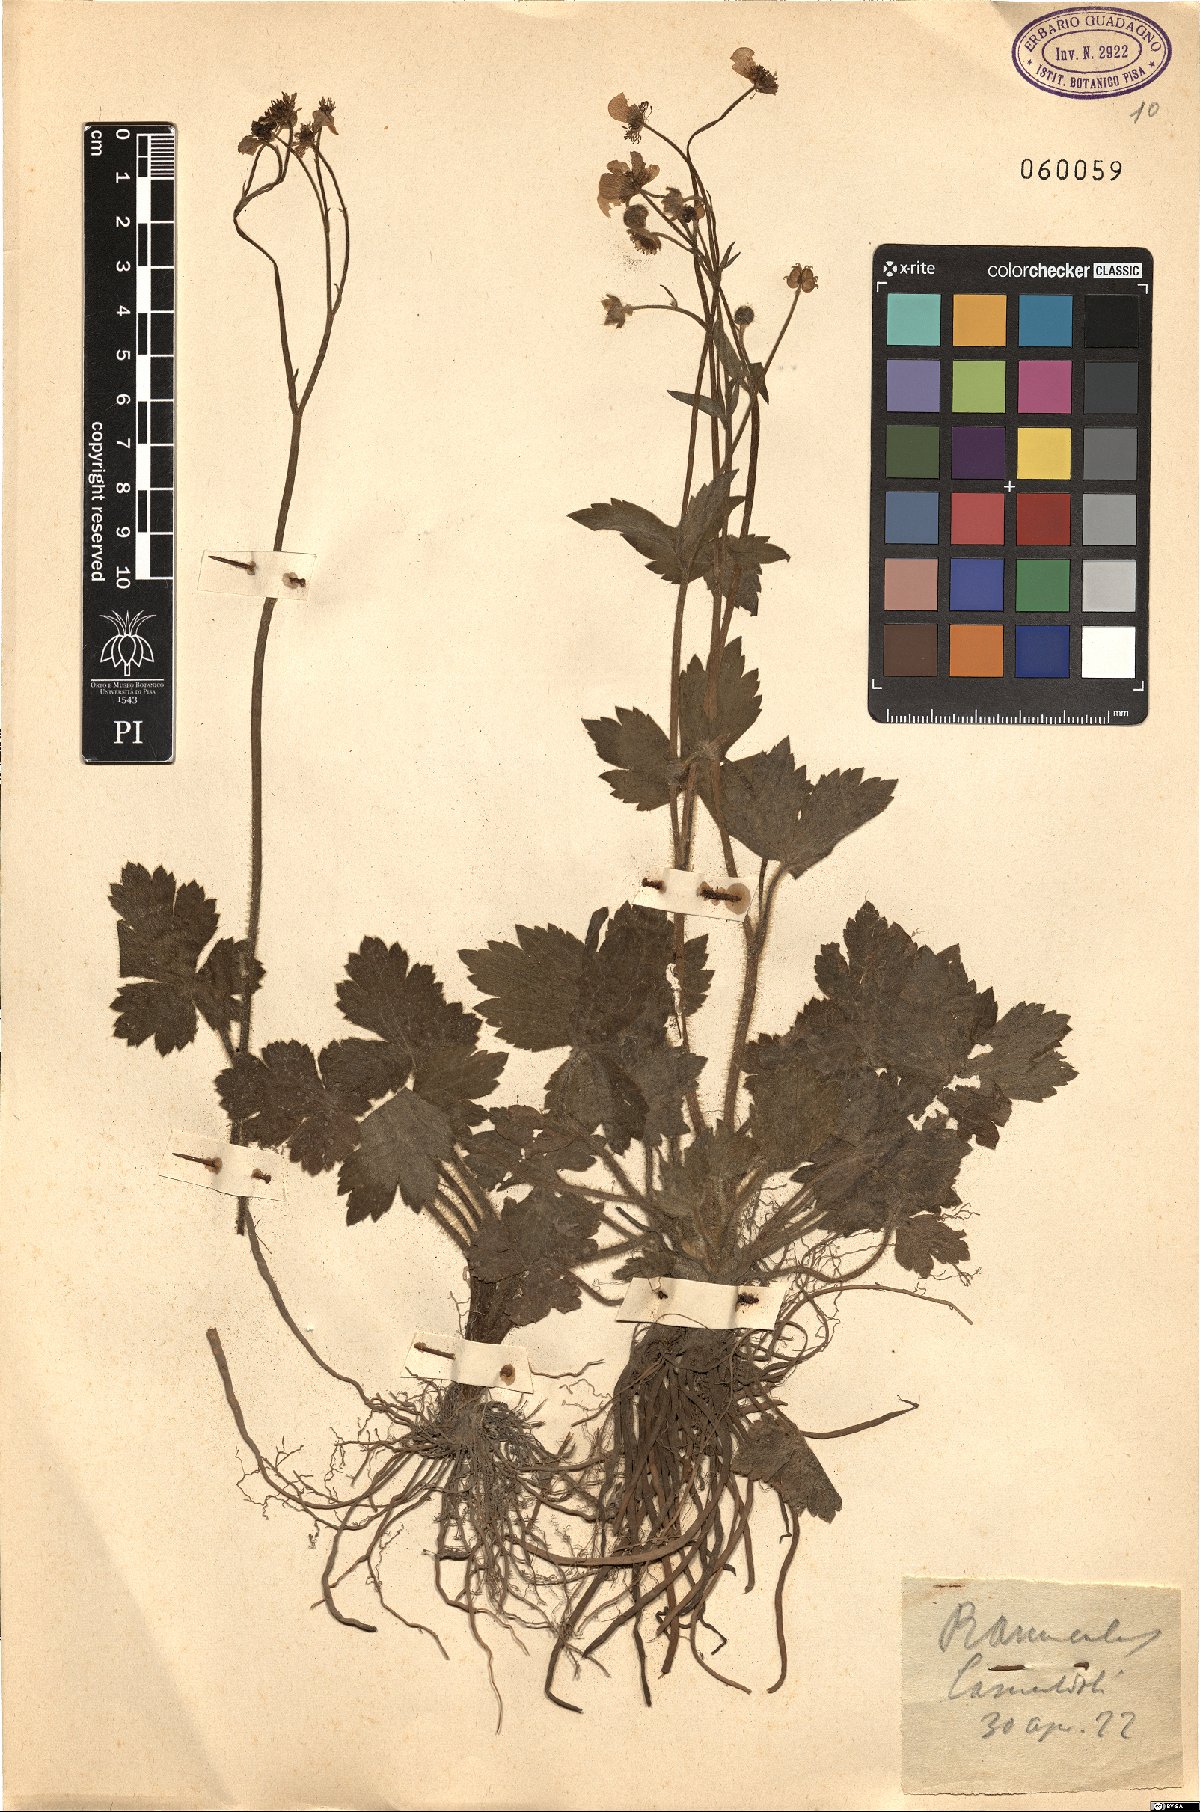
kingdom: Plantae
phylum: Tracheophyta
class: Magnoliopsida
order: Ranunculales
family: Ranunculaceae
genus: Ranunculus
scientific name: Ranunculus
